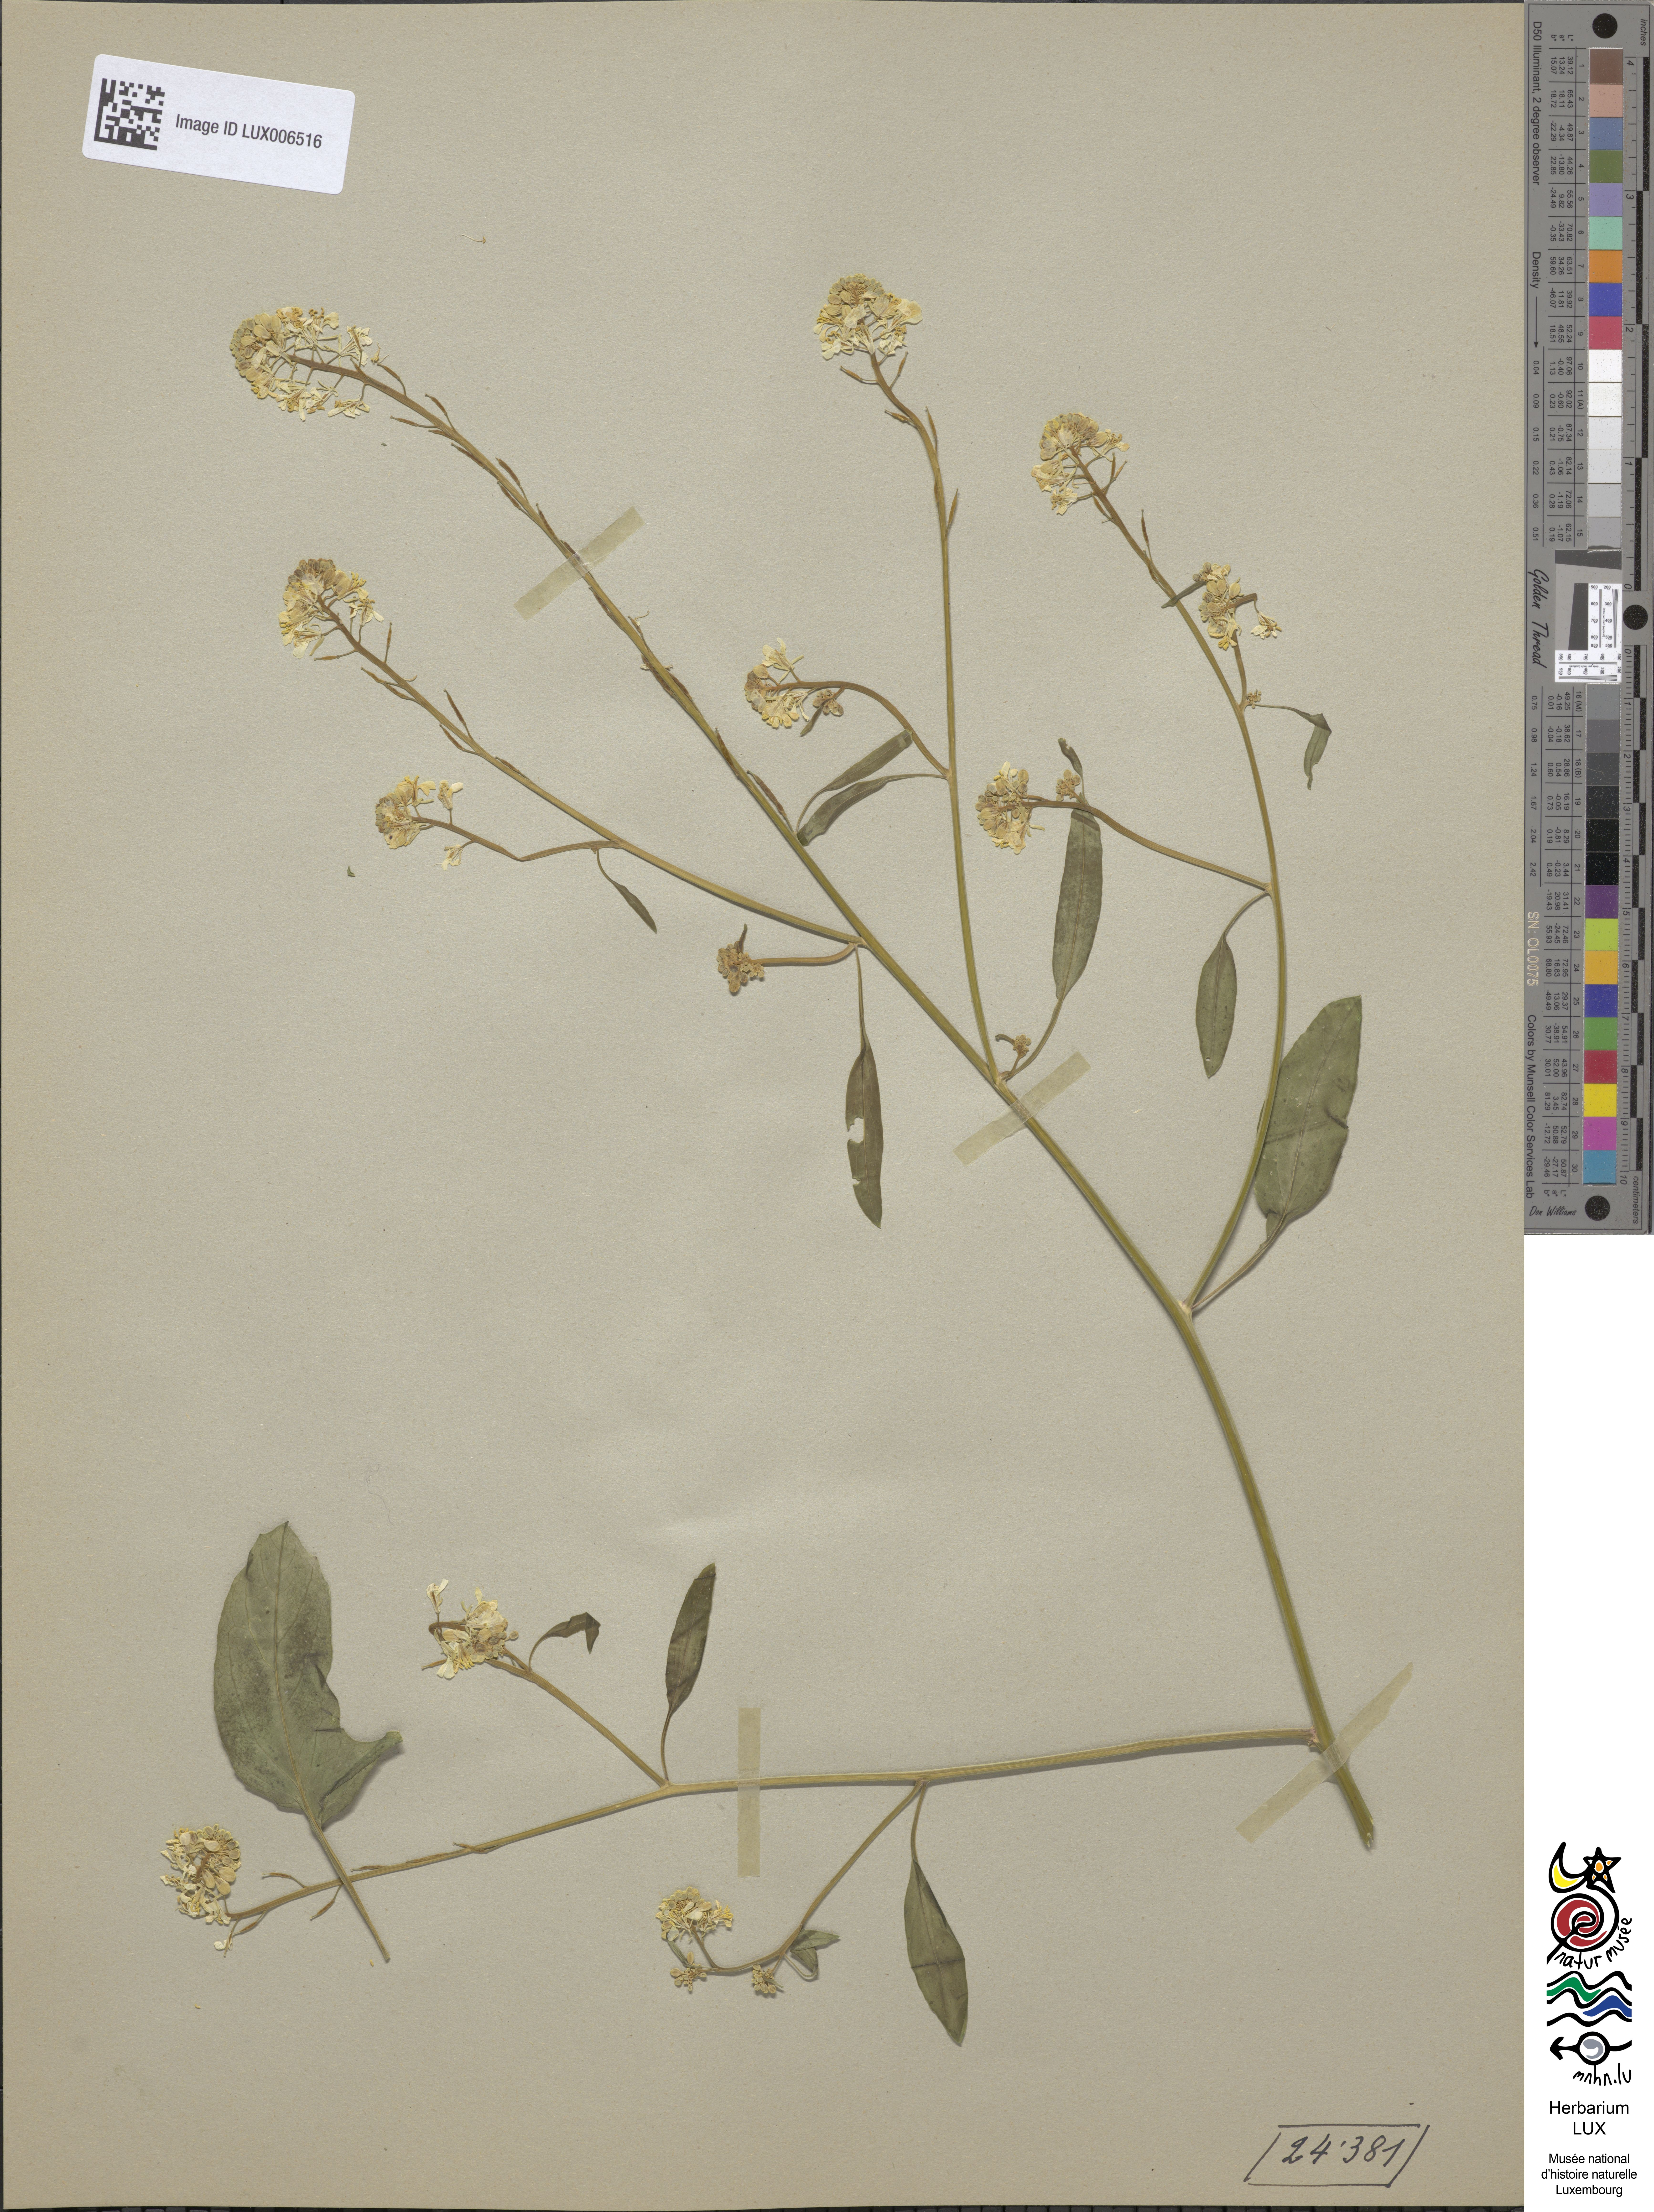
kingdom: Plantae
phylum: Tracheophyta
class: Magnoliopsida
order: Brassicales
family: Brassicaceae
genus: Brassica
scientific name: Brassica nigra
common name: Black mustard
